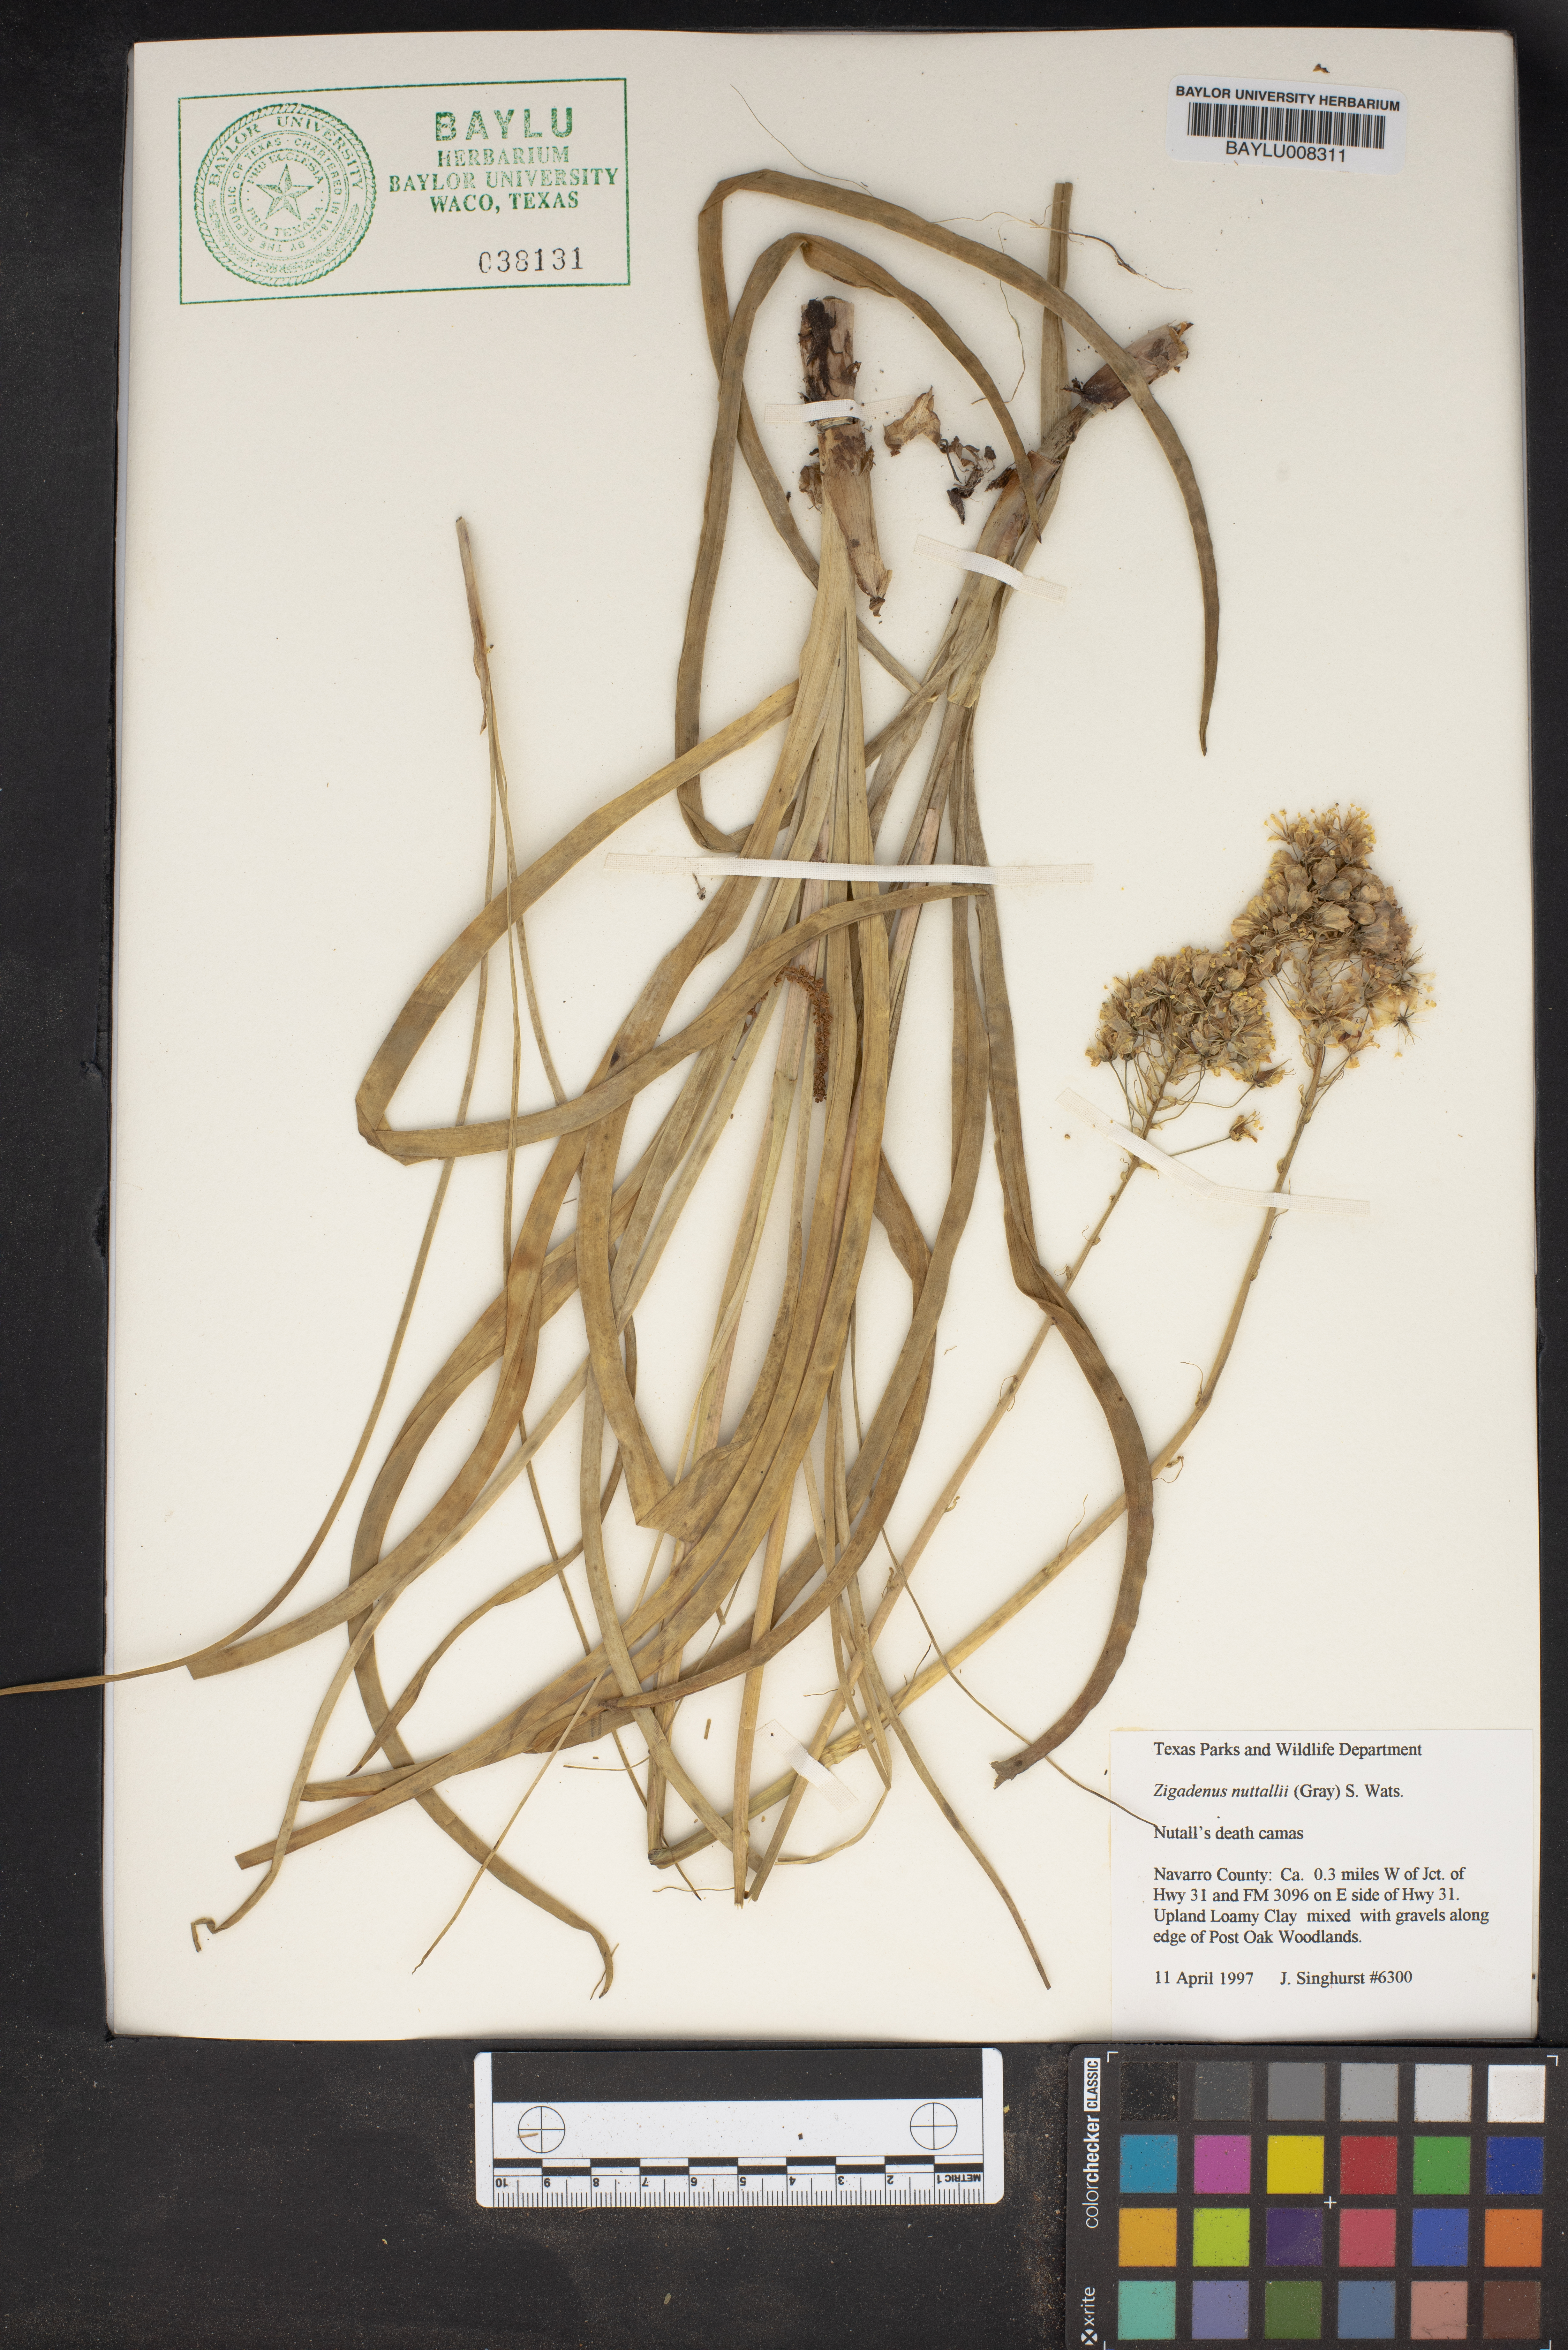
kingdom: Plantae
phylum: Tracheophyta
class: Liliopsida
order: Liliales
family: Melanthiaceae
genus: Toxicoscordion
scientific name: Toxicoscordion nuttallii
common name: Poison sego
